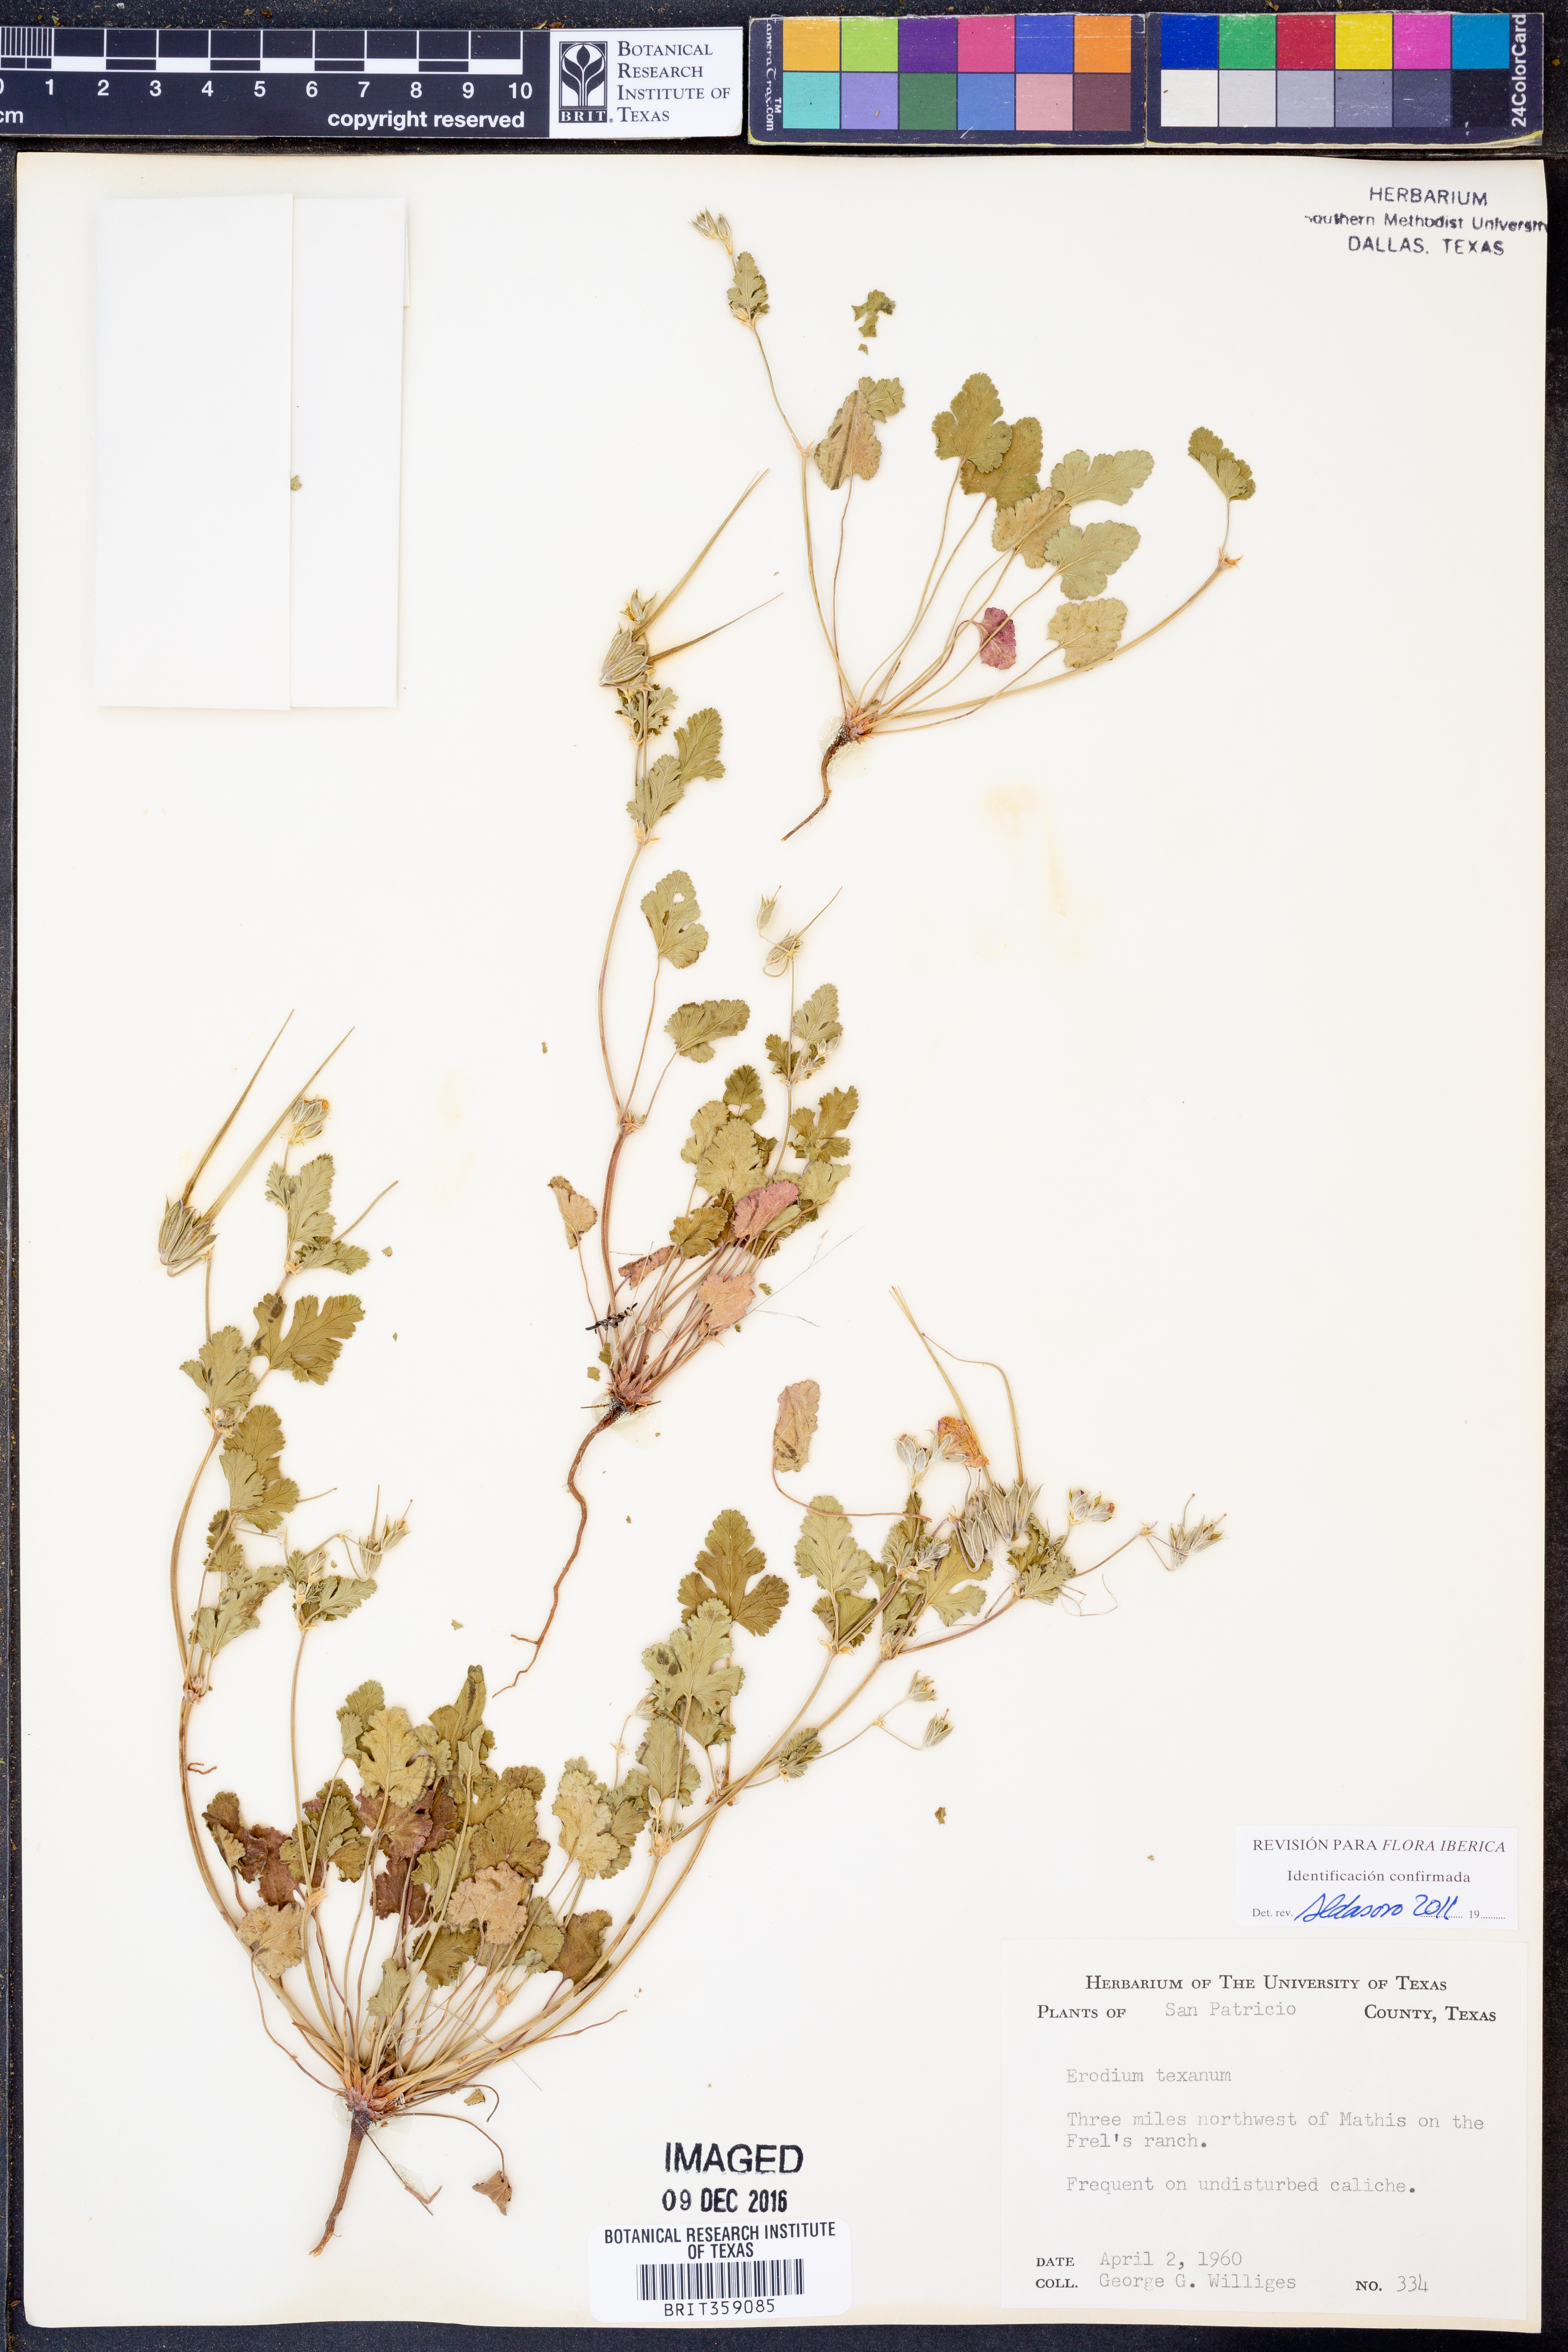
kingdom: Plantae
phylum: Tracheophyta
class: Magnoliopsida
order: Geraniales
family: Geraniaceae
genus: Erodium
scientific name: Erodium texanum
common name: Texas stork's-bill
